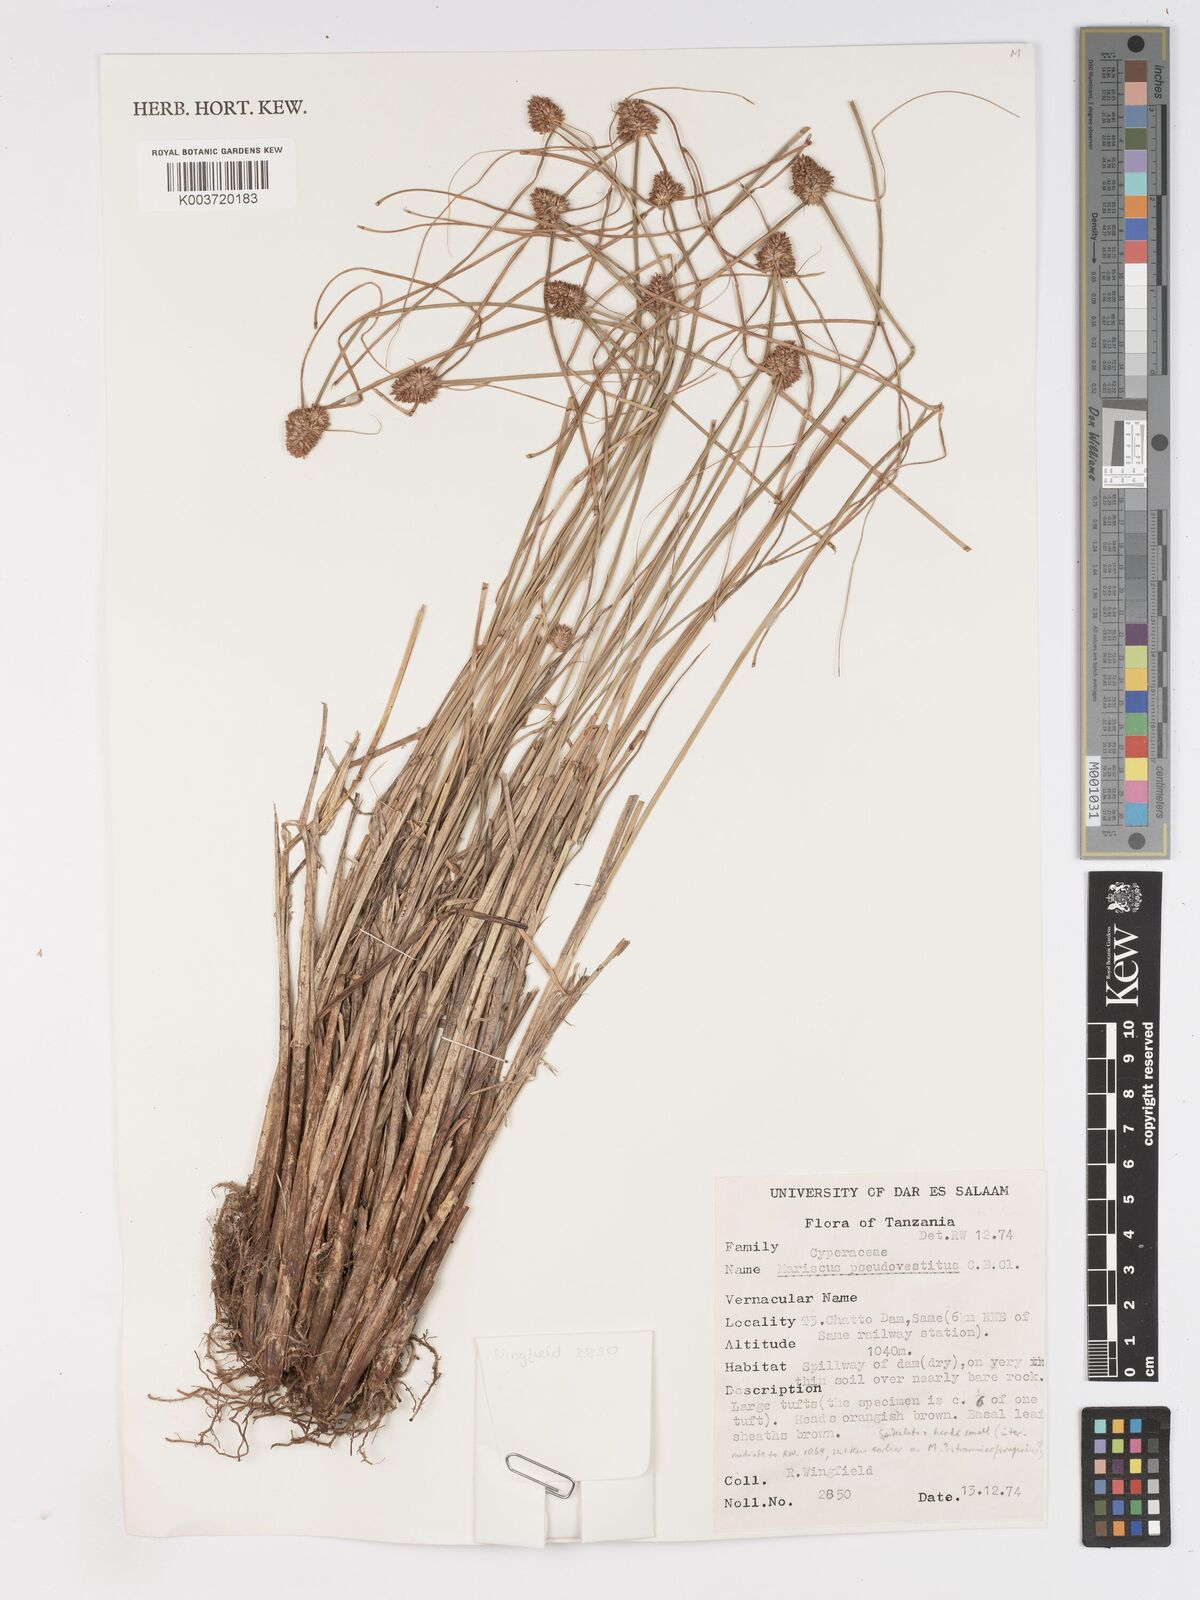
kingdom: Plantae
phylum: Tracheophyta
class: Liliopsida
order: Poales
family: Cyperaceae
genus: Cyperus
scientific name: Cyperus pseudovestitus
